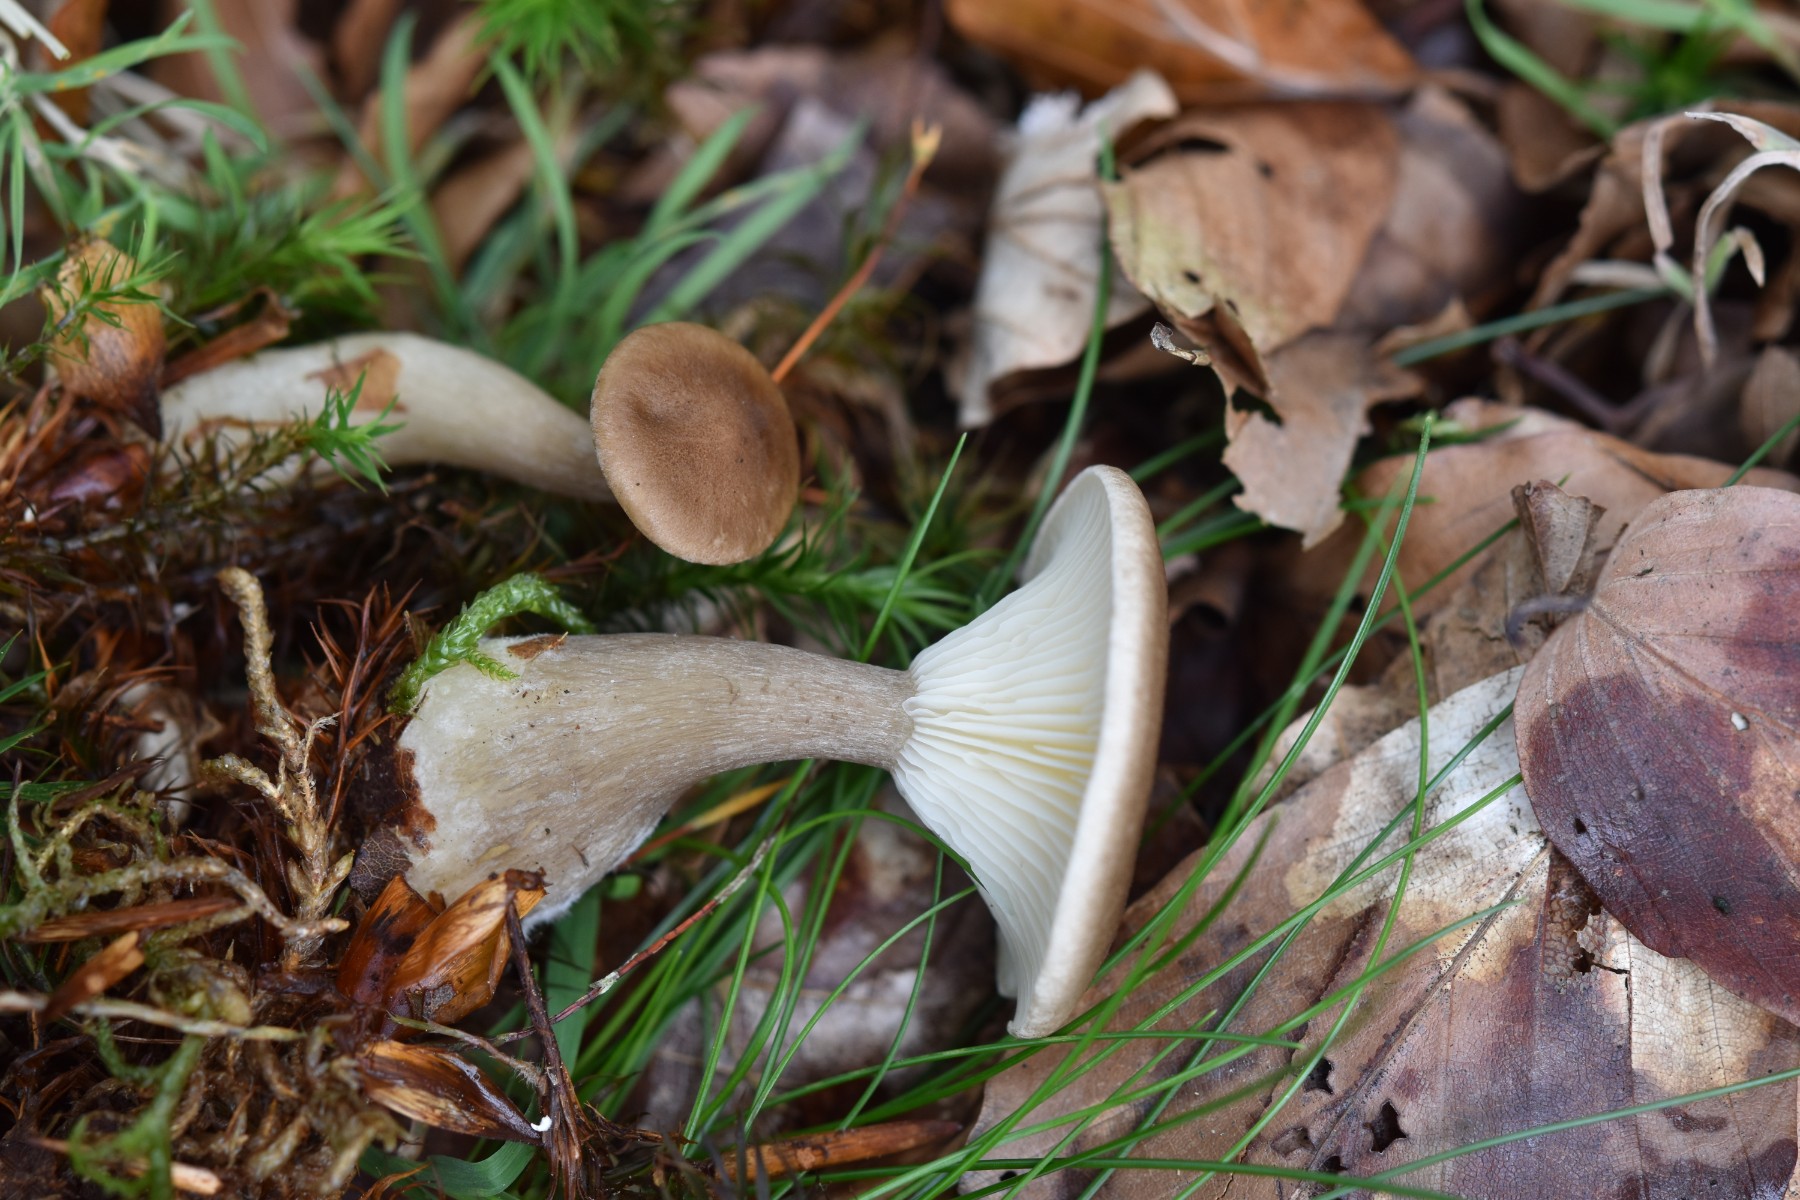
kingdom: Fungi
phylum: Basidiomycota
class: Agaricomycetes
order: Agaricales
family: Hygrophoraceae
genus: Ampulloclitocybe
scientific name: Ampulloclitocybe clavipes
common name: køllefod
